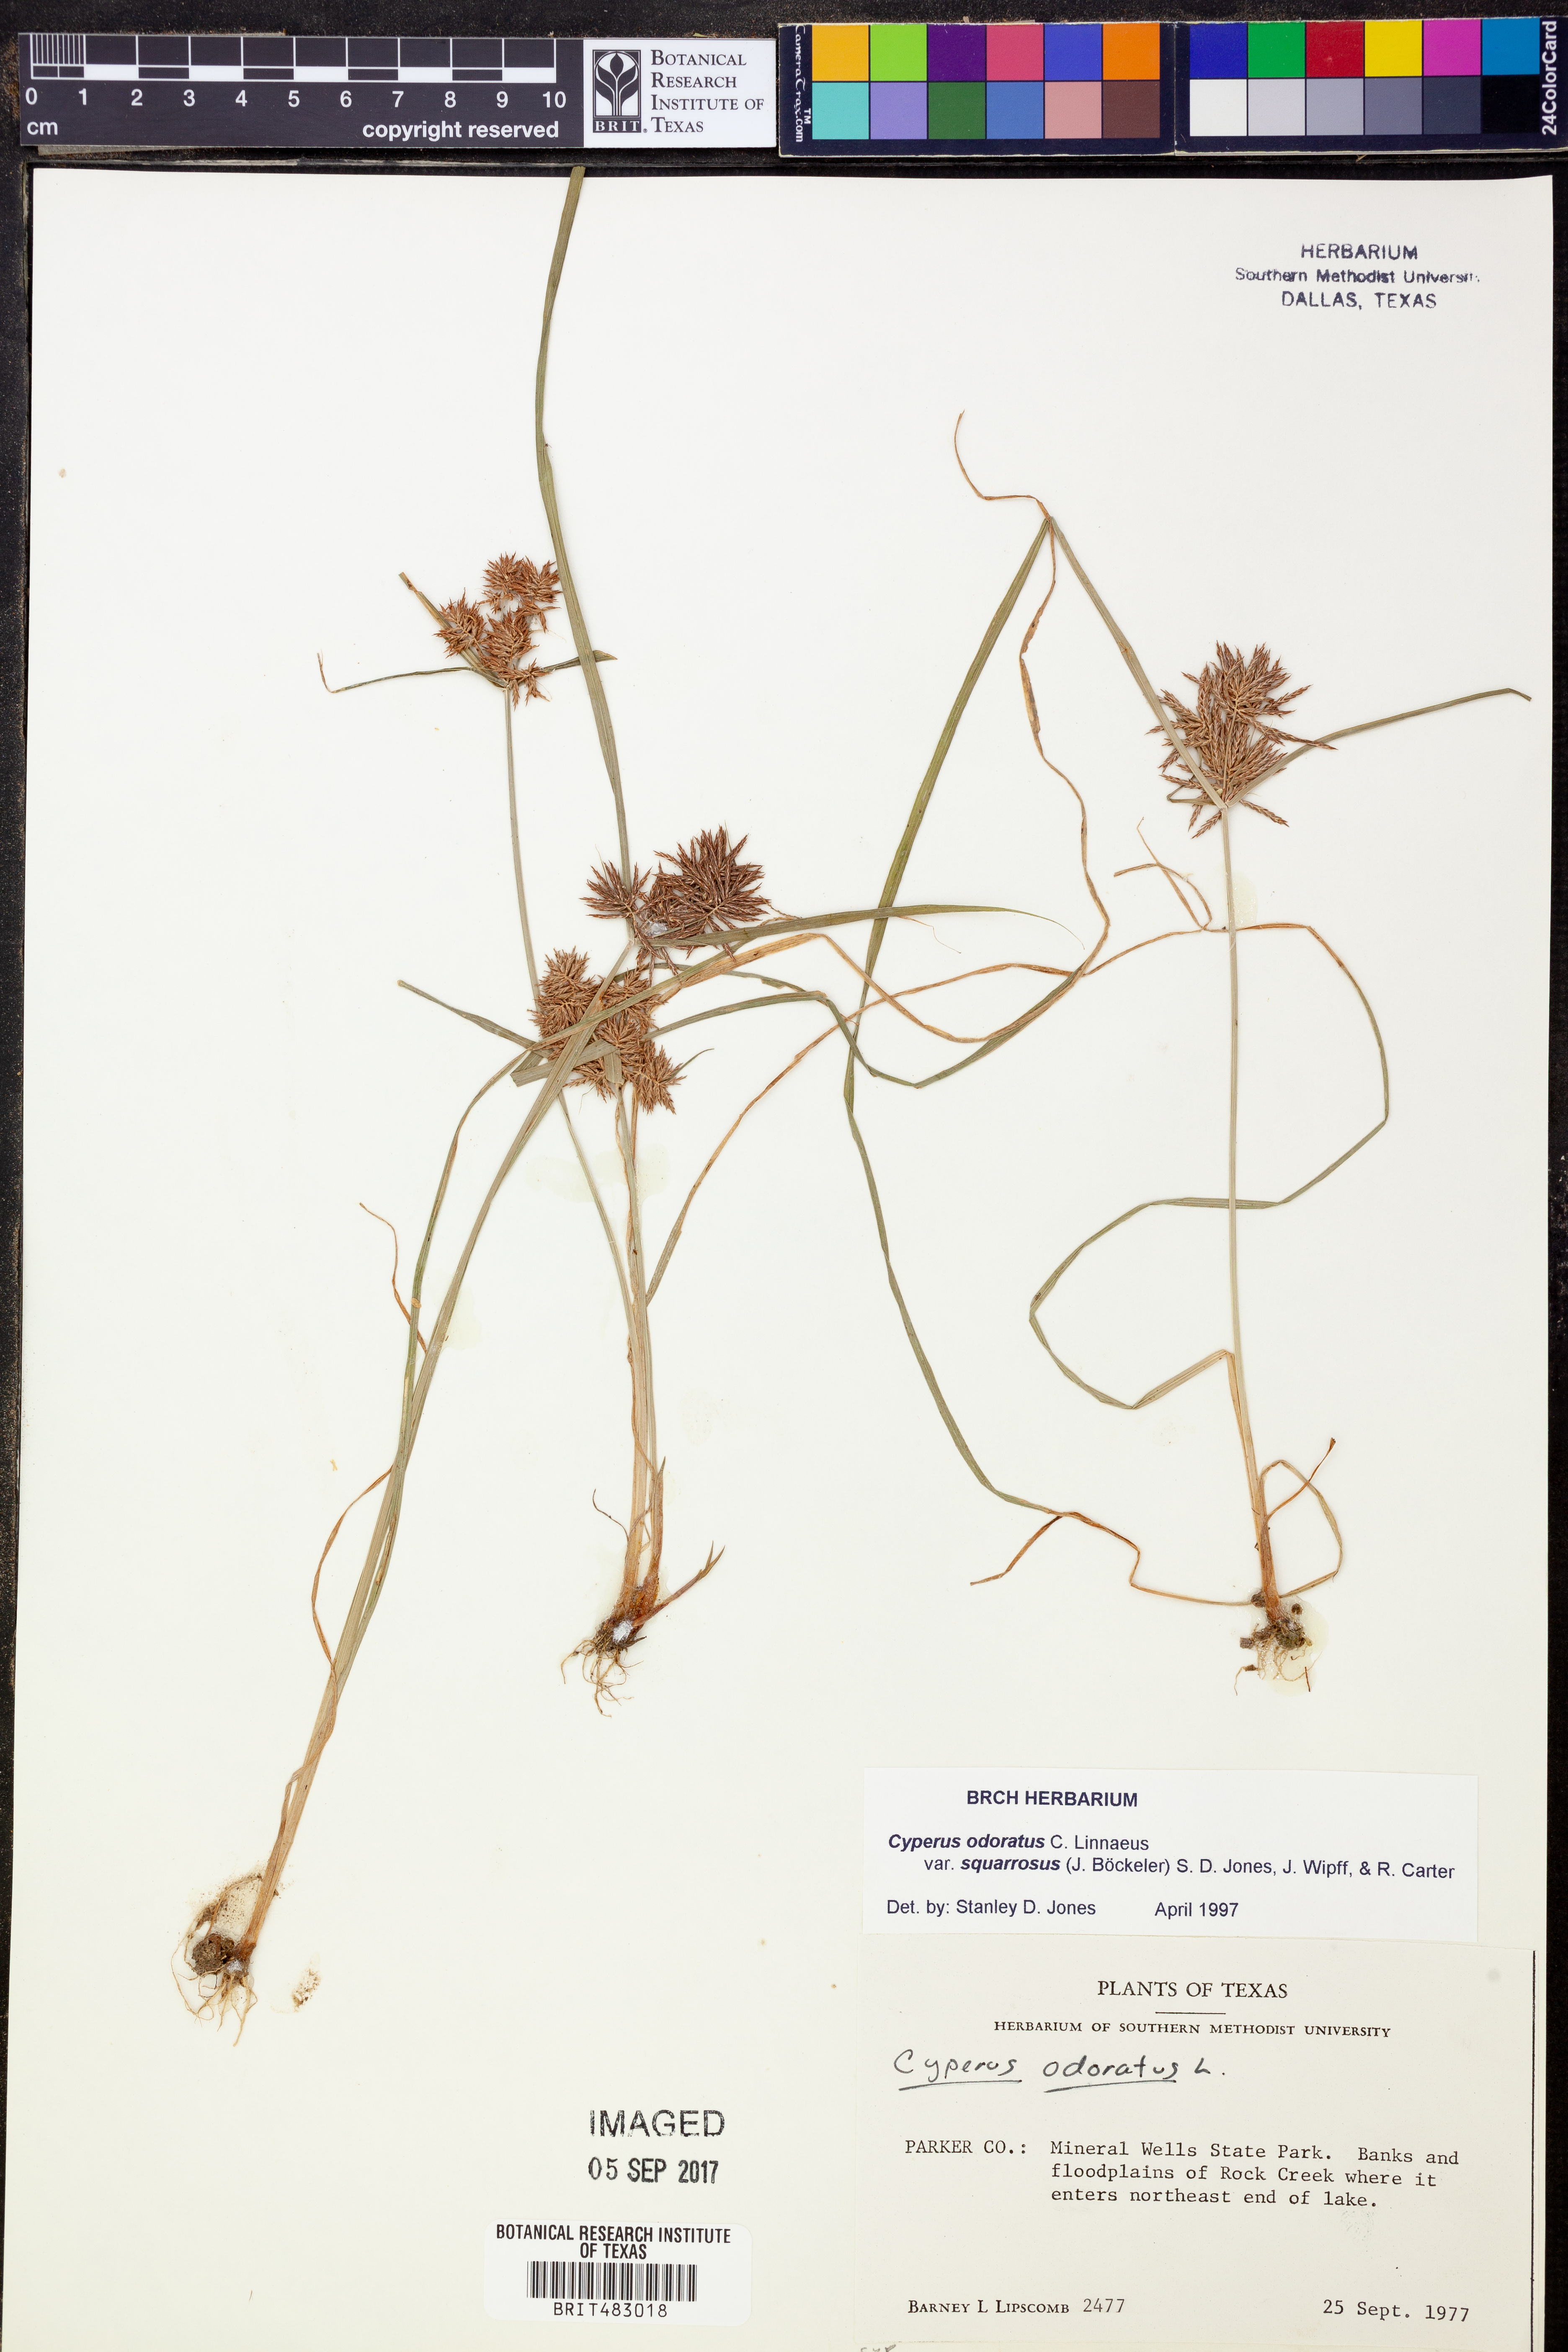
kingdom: Plantae
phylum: Tracheophyta
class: Liliopsida
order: Poales
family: Cyperaceae
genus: Cyperus
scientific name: Cyperus odoratus
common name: Fragrant flatsedge
